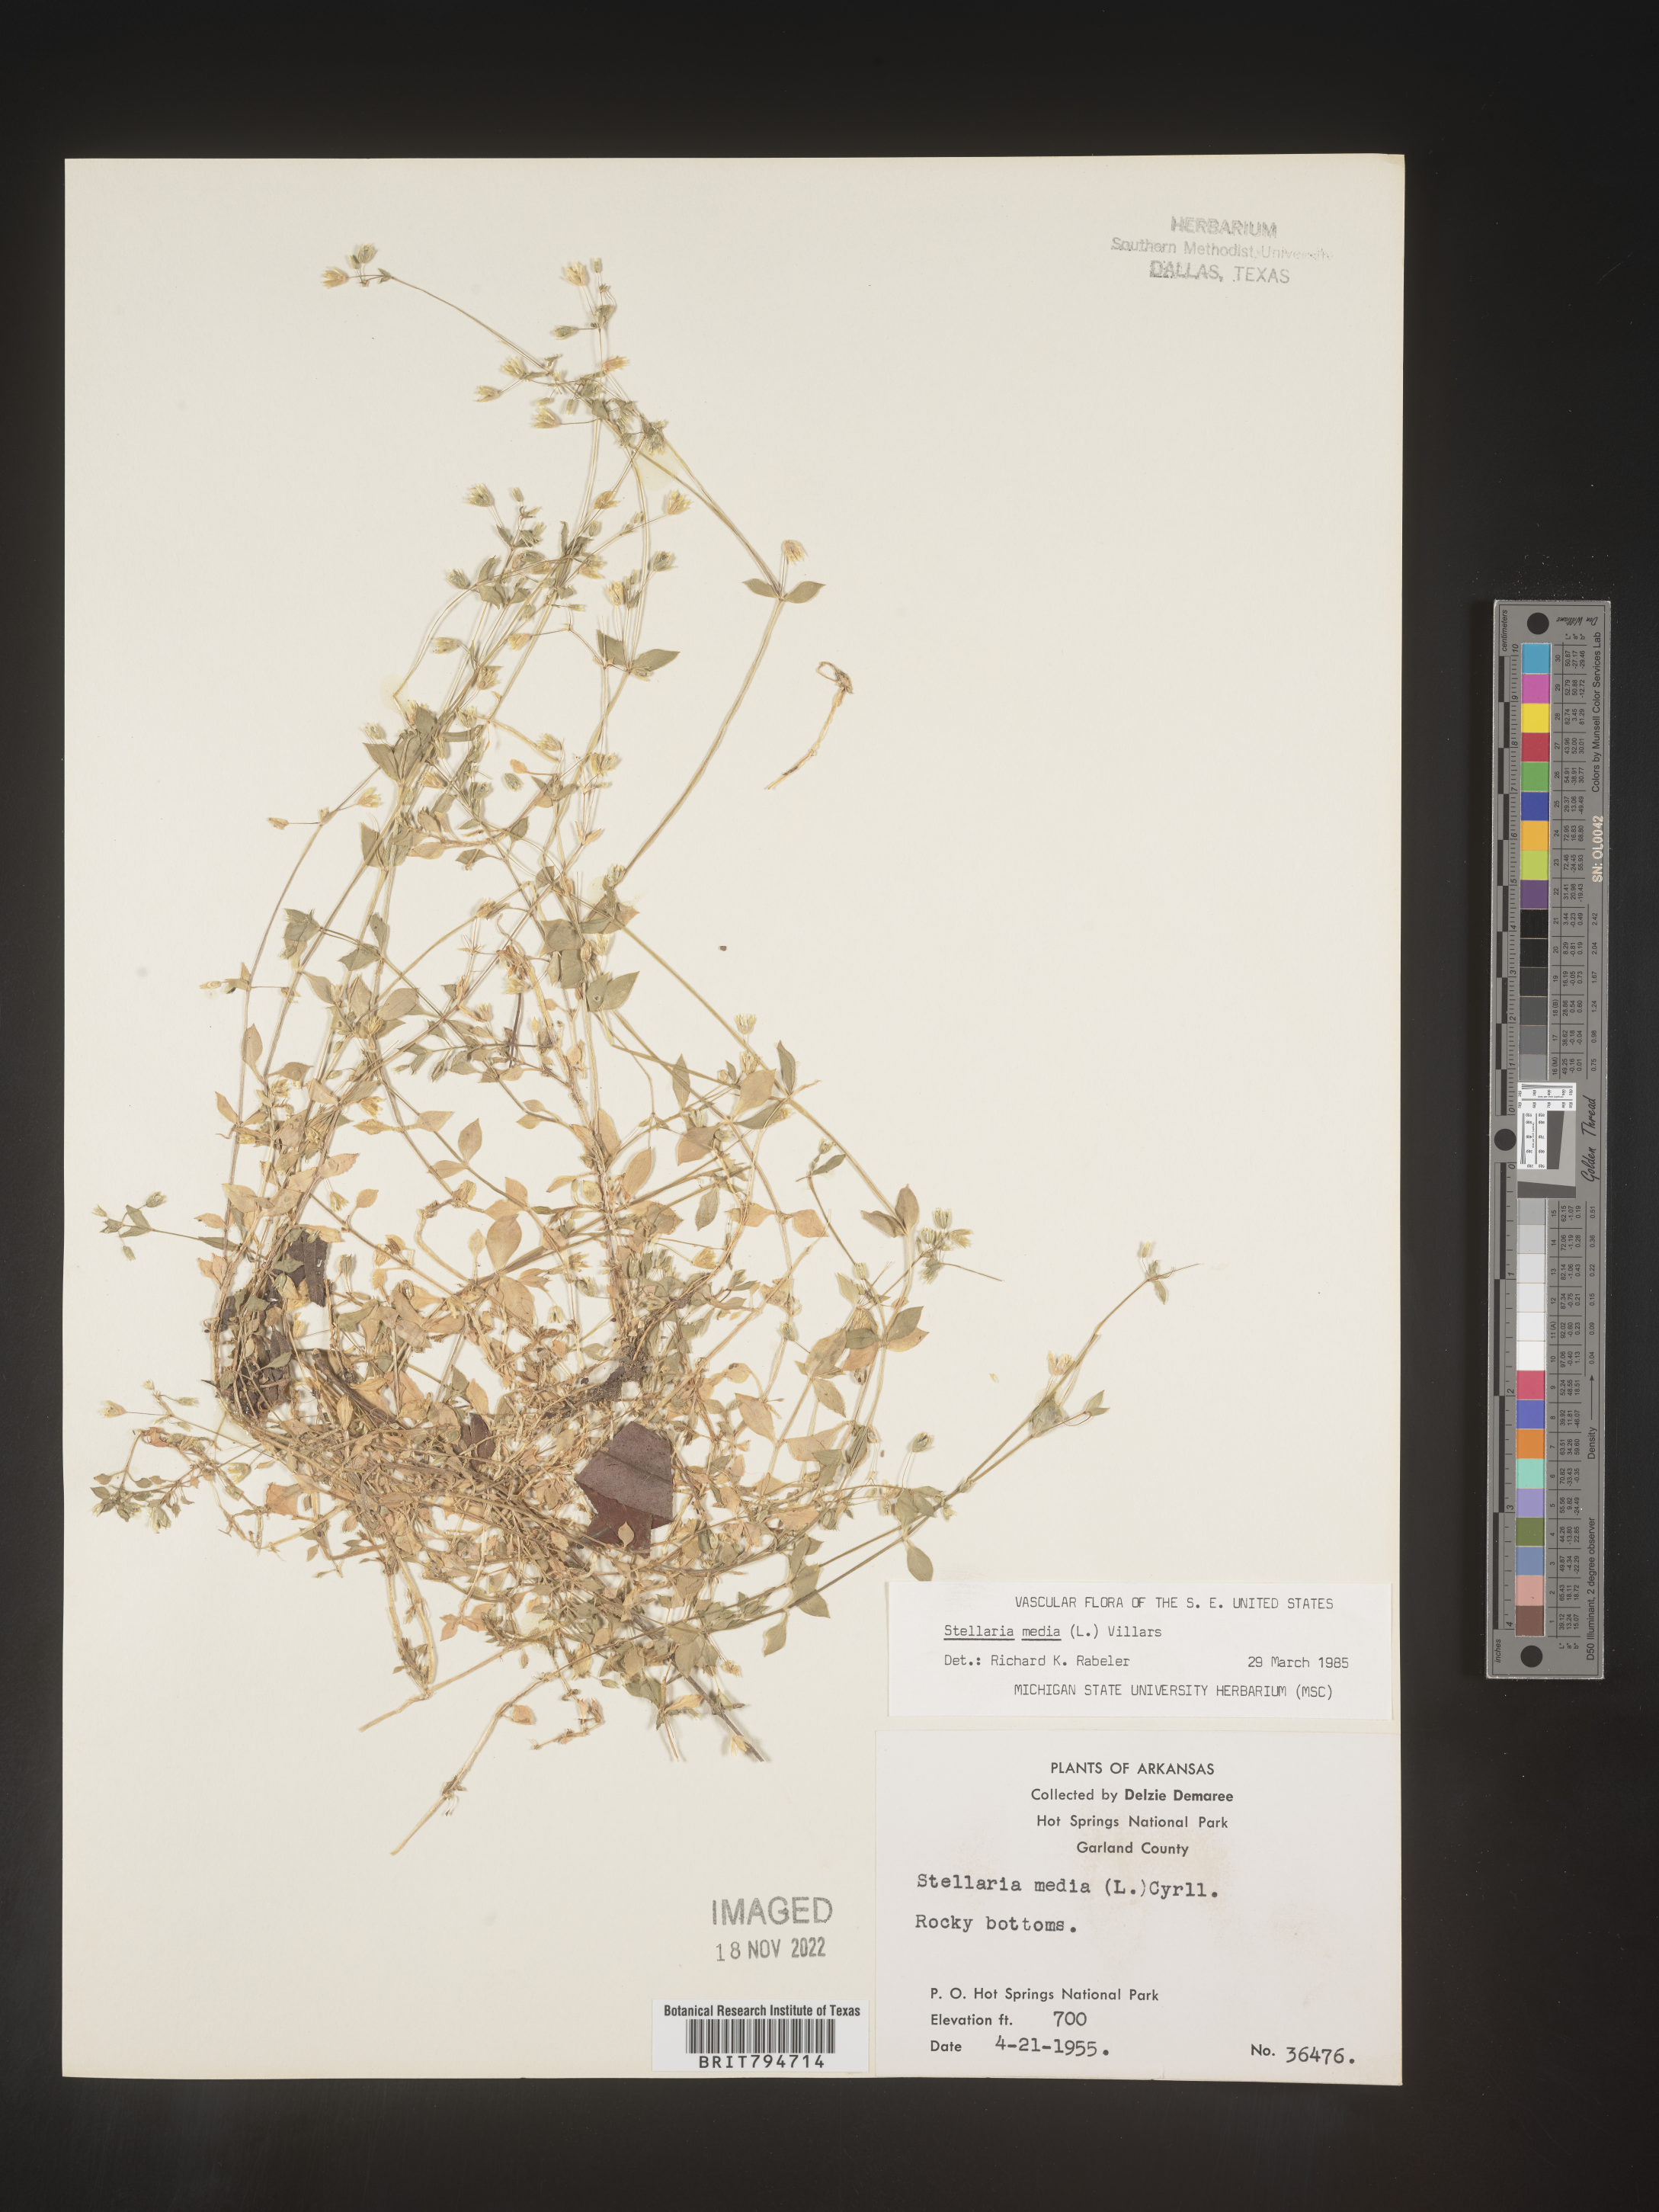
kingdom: Plantae
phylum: Tracheophyta
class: Magnoliopsida
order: Caryophyllales
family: Caryophyllaceae
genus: Stellaria
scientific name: Stellaria media
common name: Common chickweed
